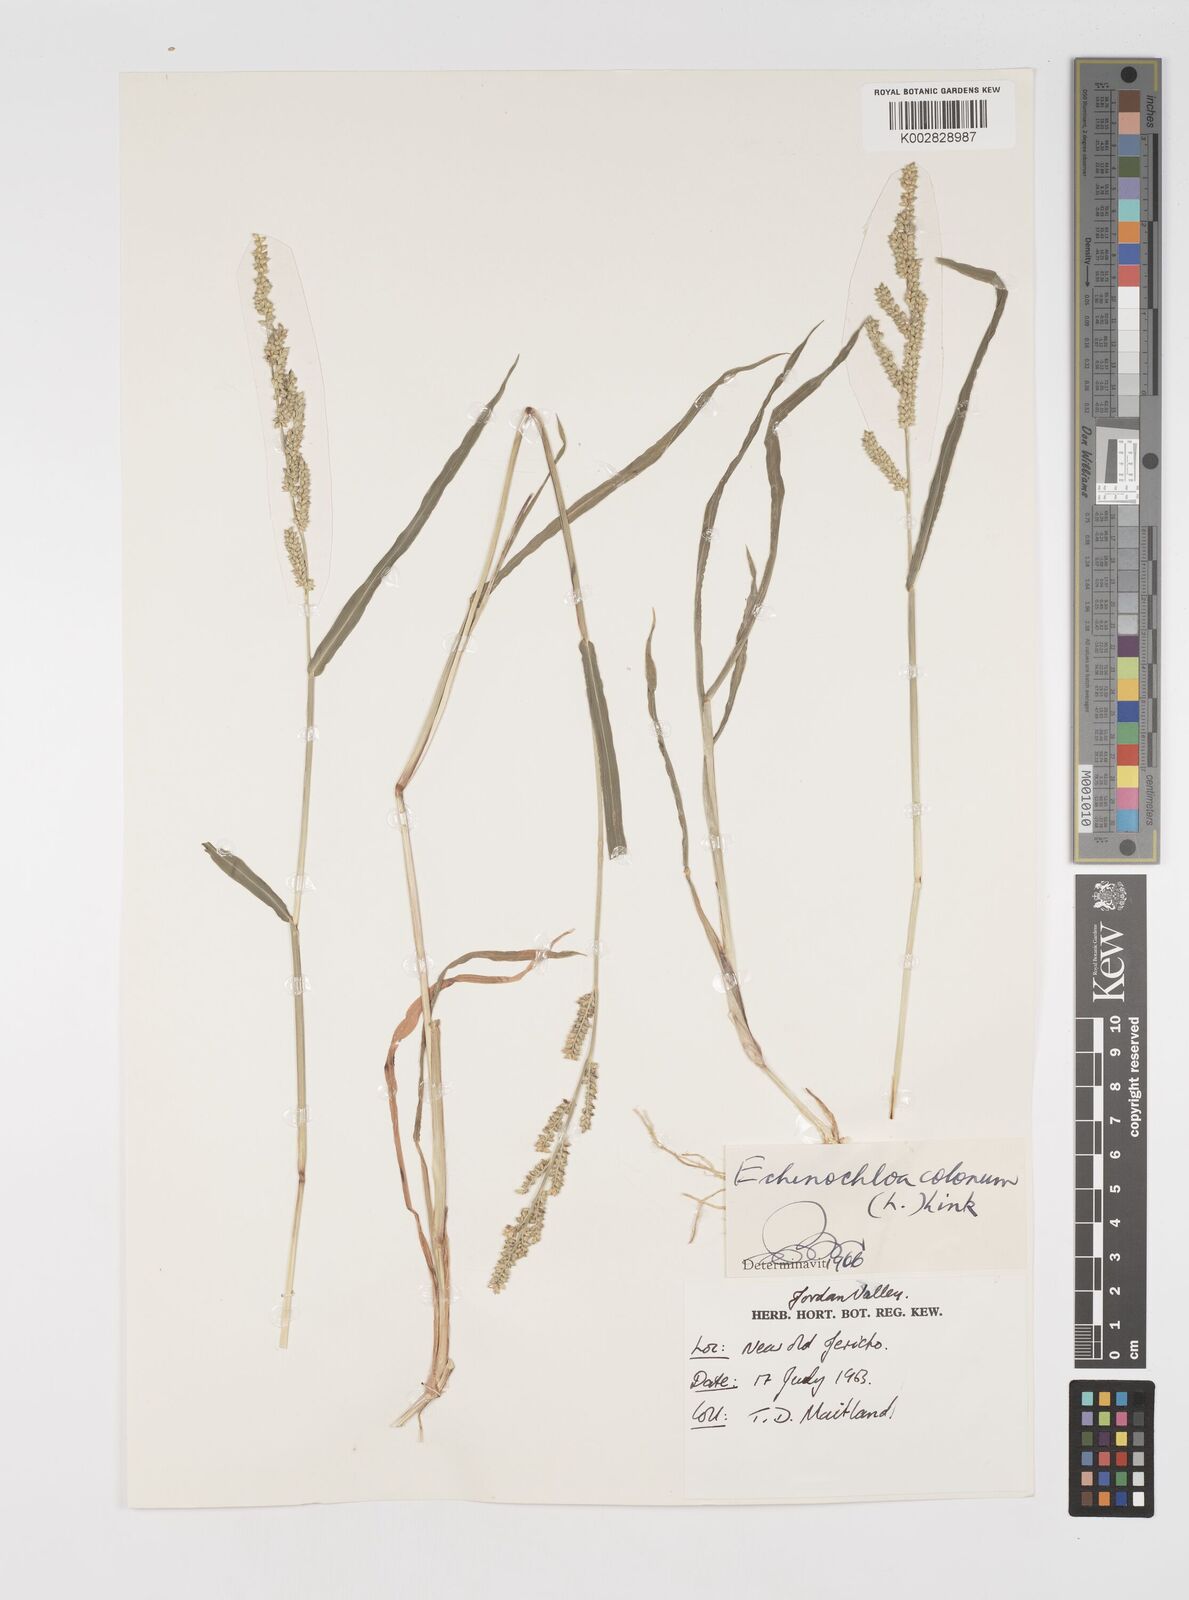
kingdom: Plantae
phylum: Tracheophyta
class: Liliopsida
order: Poales
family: Poaceae
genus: Echinochloa
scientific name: Echinochloa colonum
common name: Jungle rice
